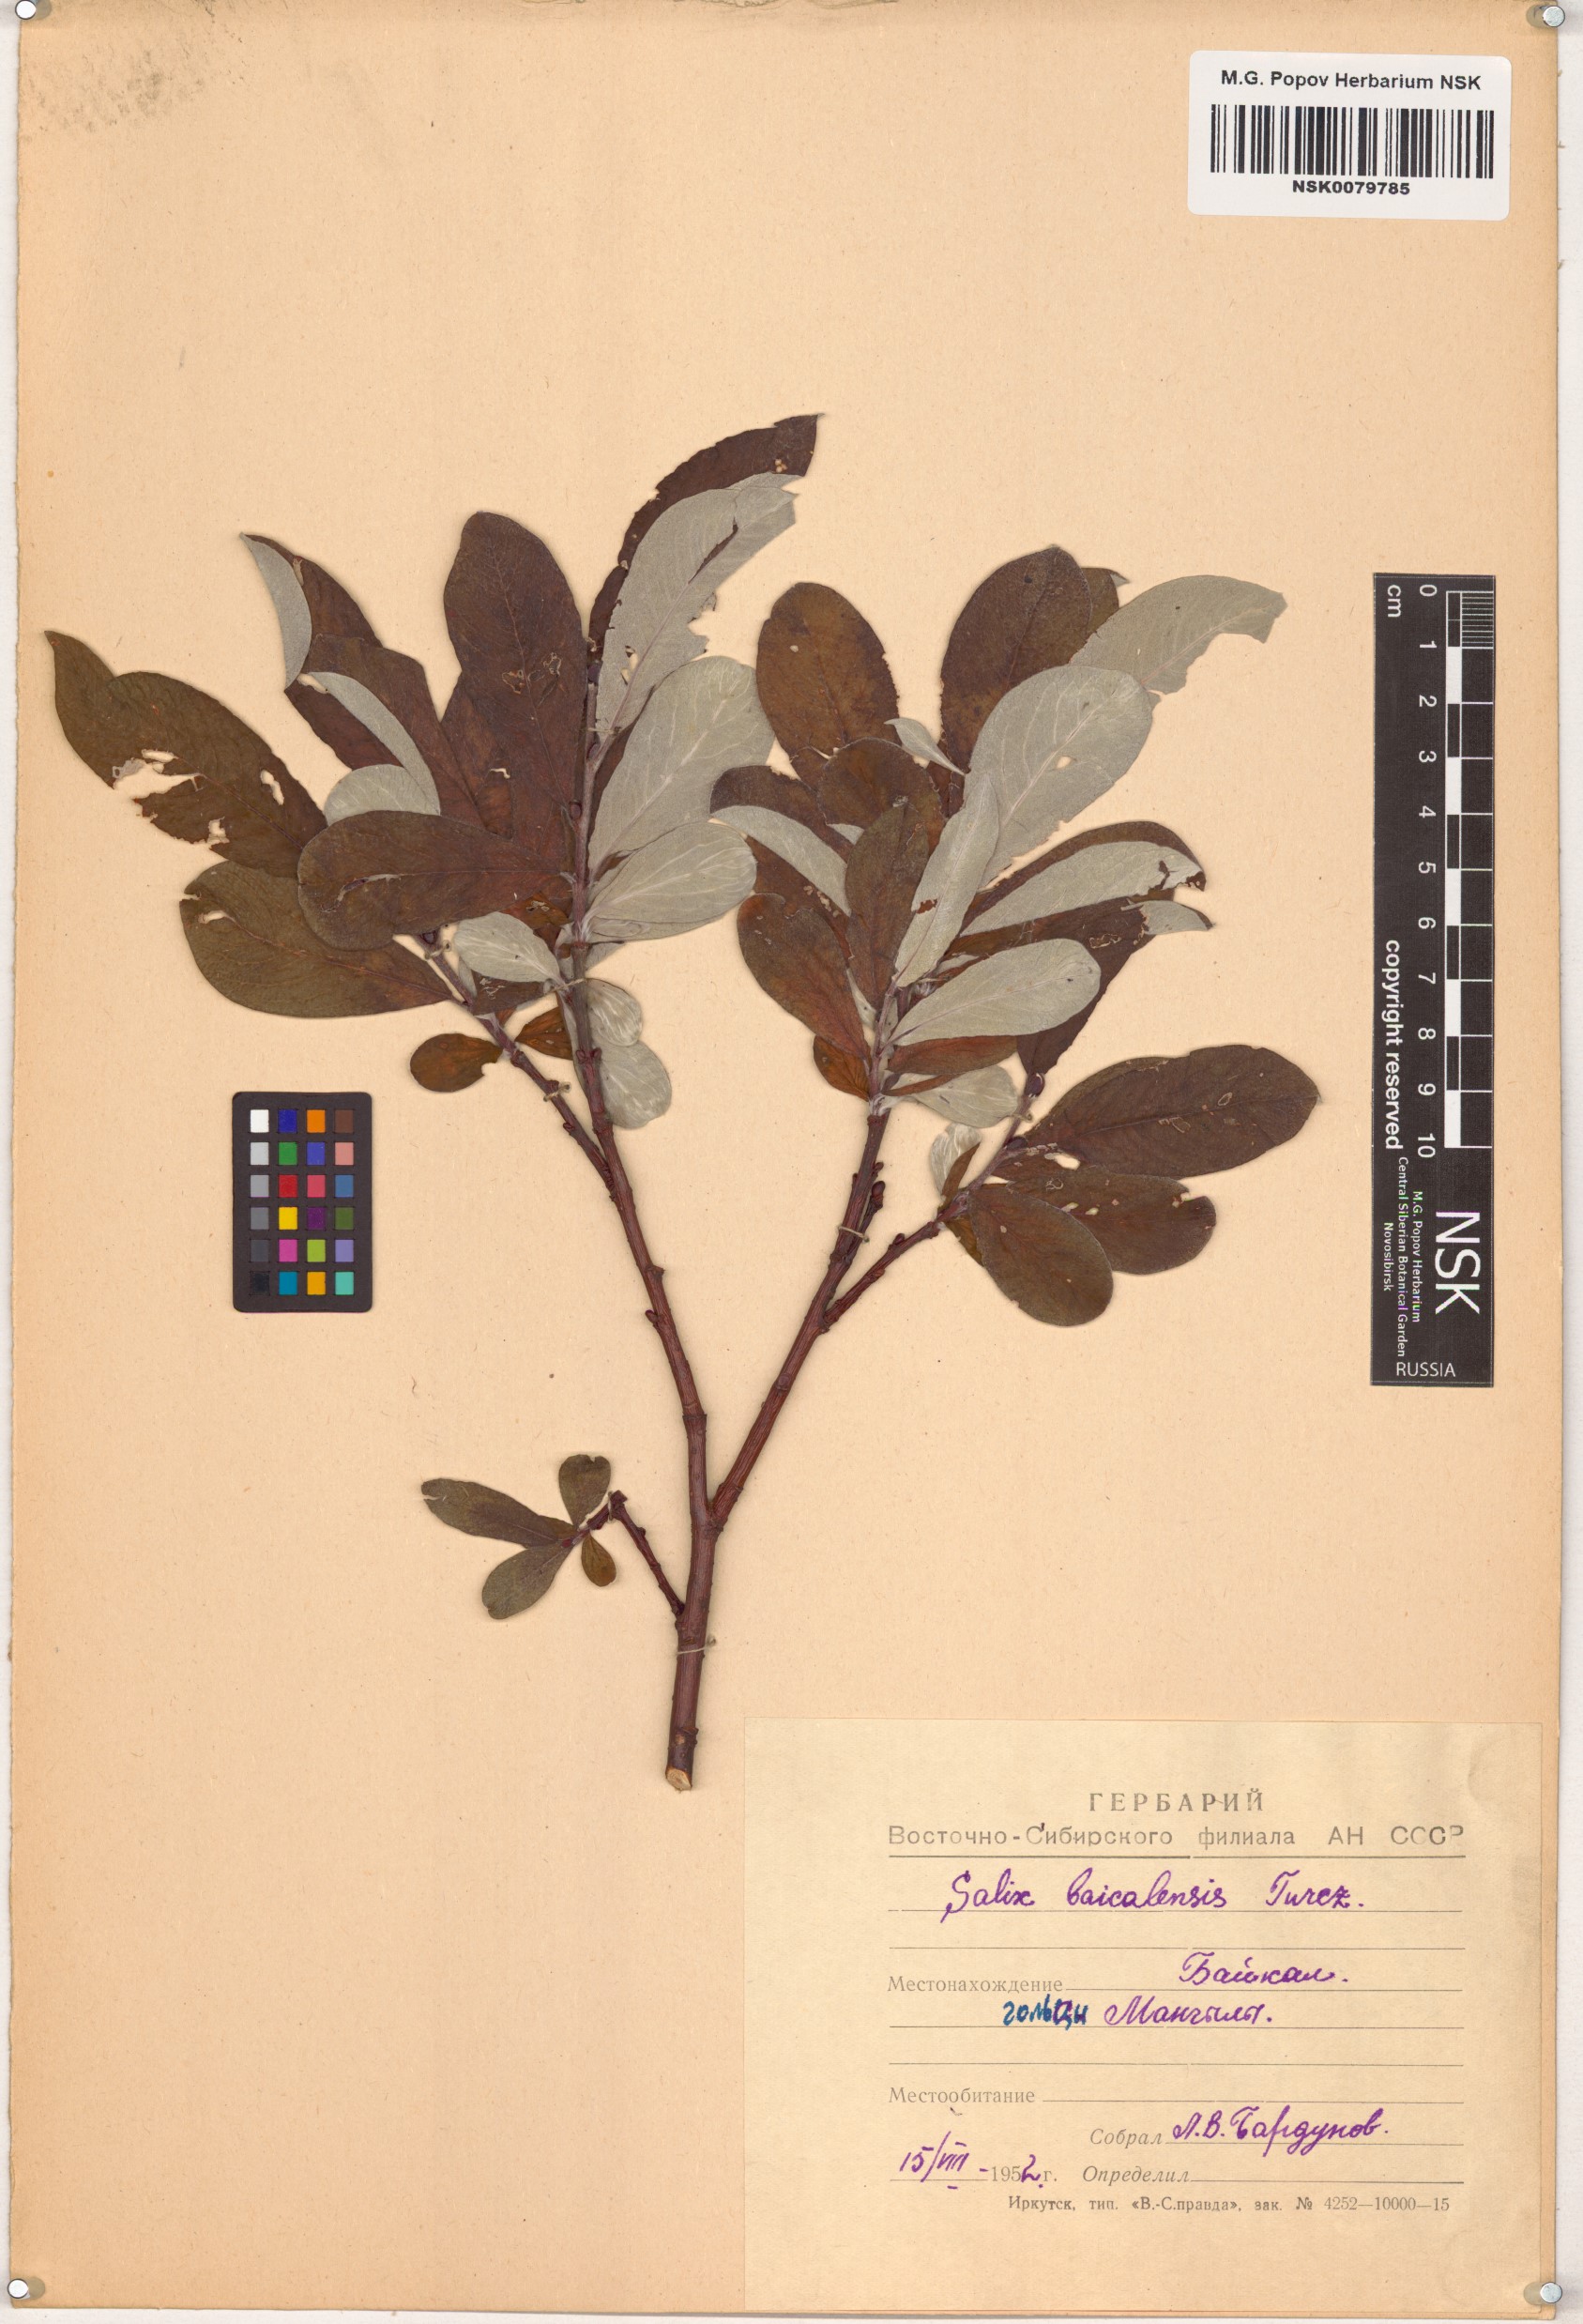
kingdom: Plantae
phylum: Tracheophyta
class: Magnoliopsida
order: Malpighiales
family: Salicaceae
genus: Salix
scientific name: Salix krylovii
